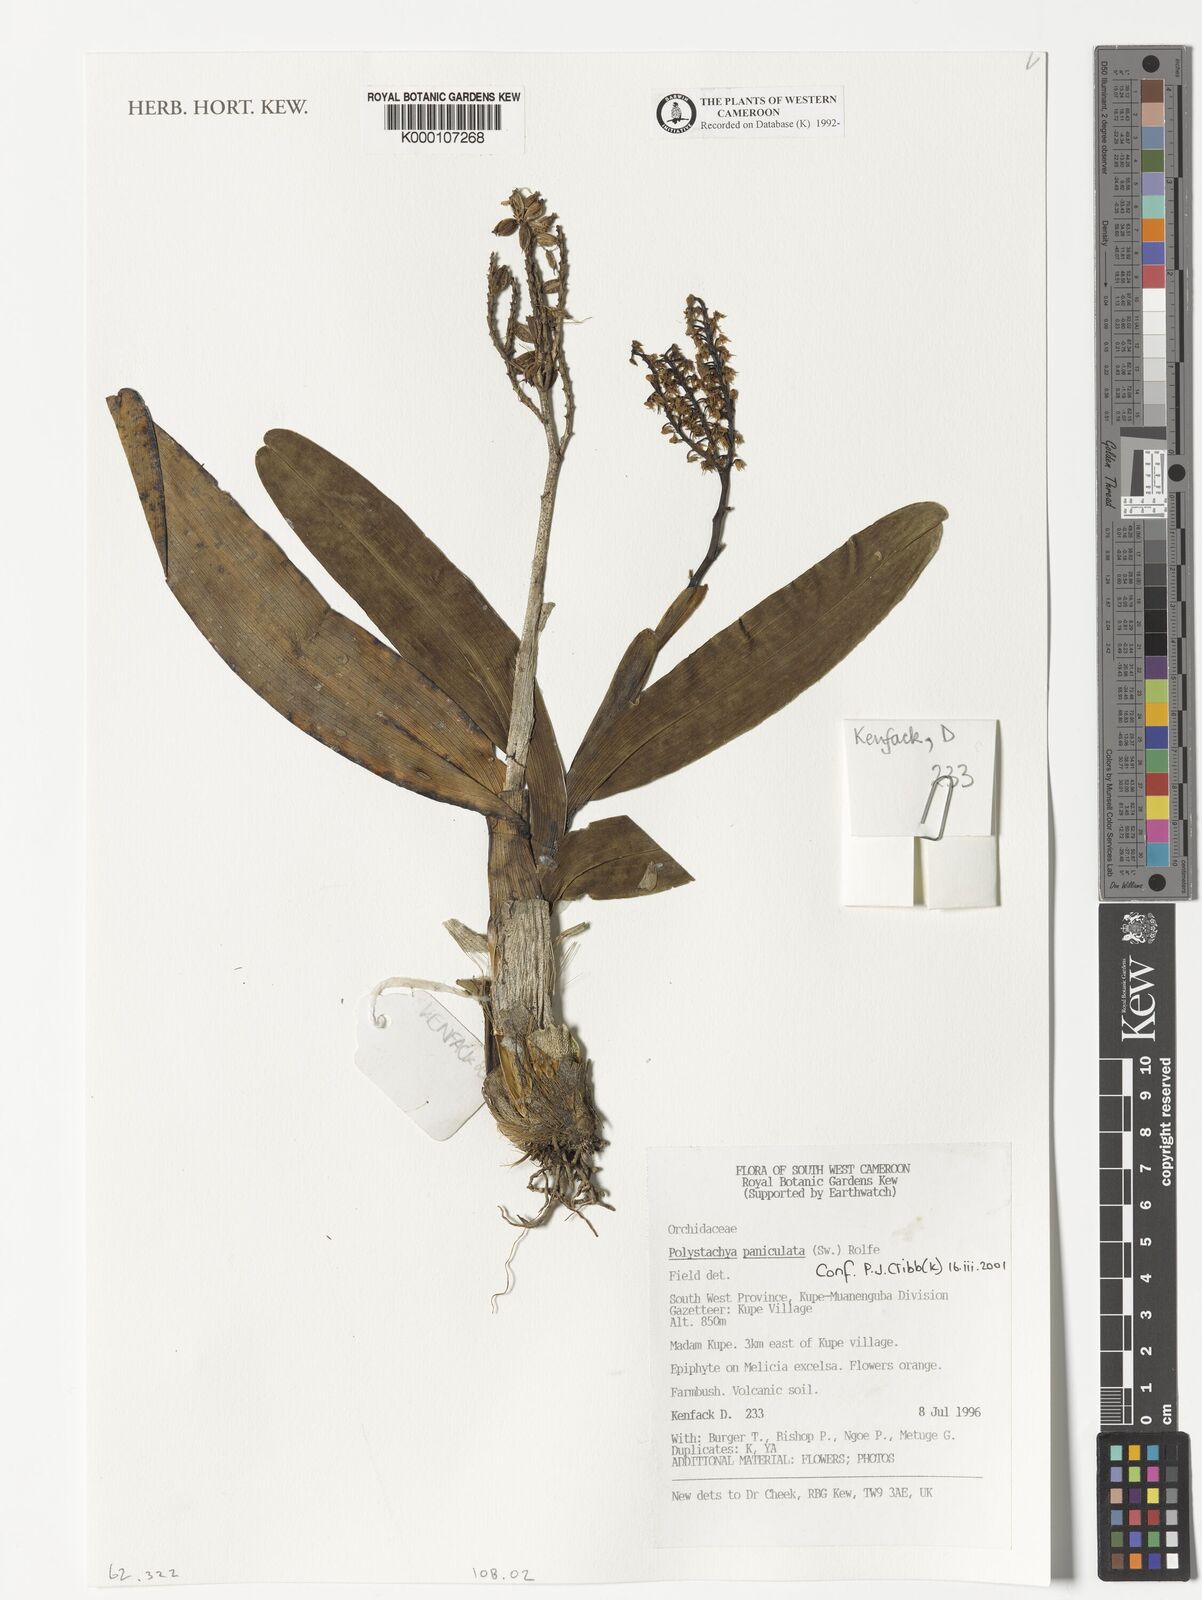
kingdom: Plantae
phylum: Tracheophyta
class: Liliopsida
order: Asparagales
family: Orchidaceae
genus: Polystachya
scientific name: Polystachya paniculata
